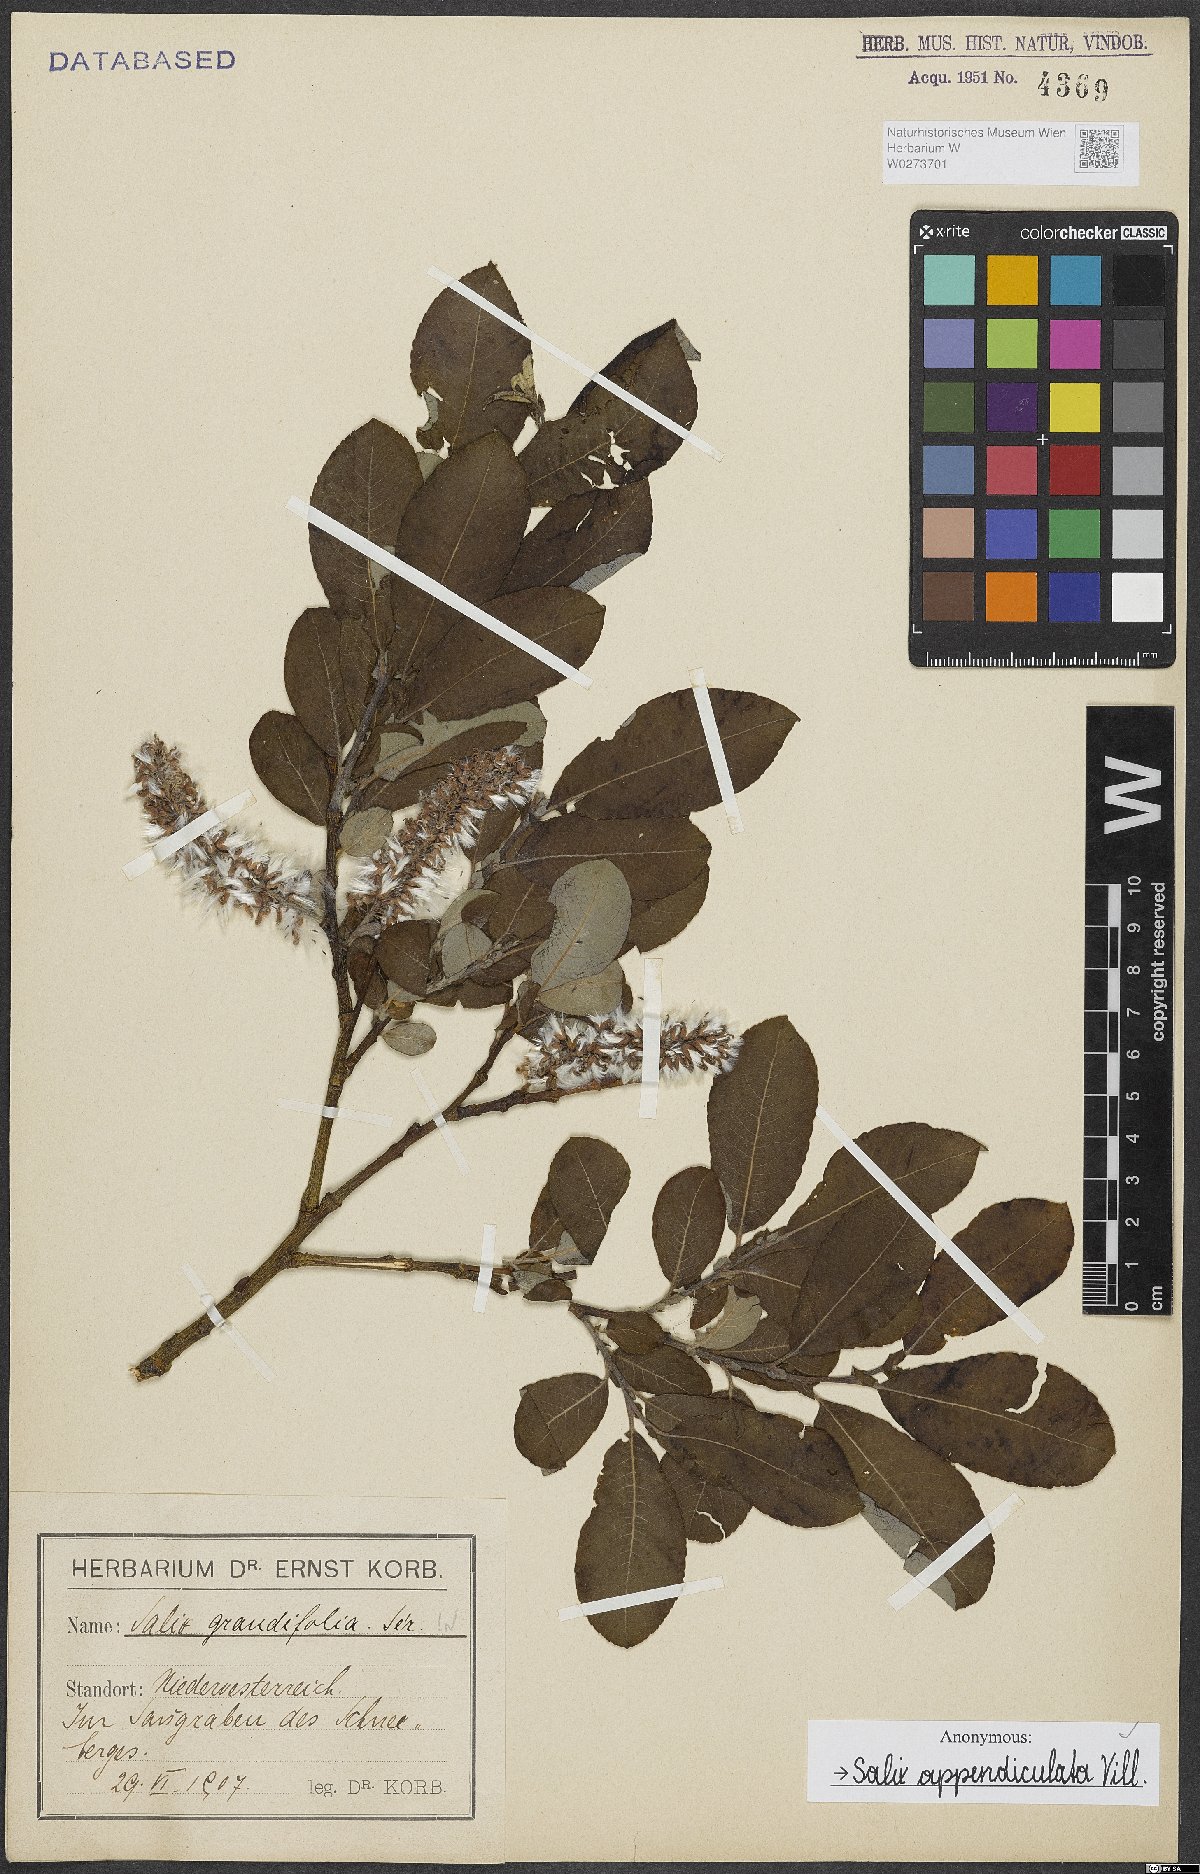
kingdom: Plantae
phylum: Tracheophyta
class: Magnoliopsida
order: Malpighiales
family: Salicaceae
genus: Salix
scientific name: Salix appendiculata
